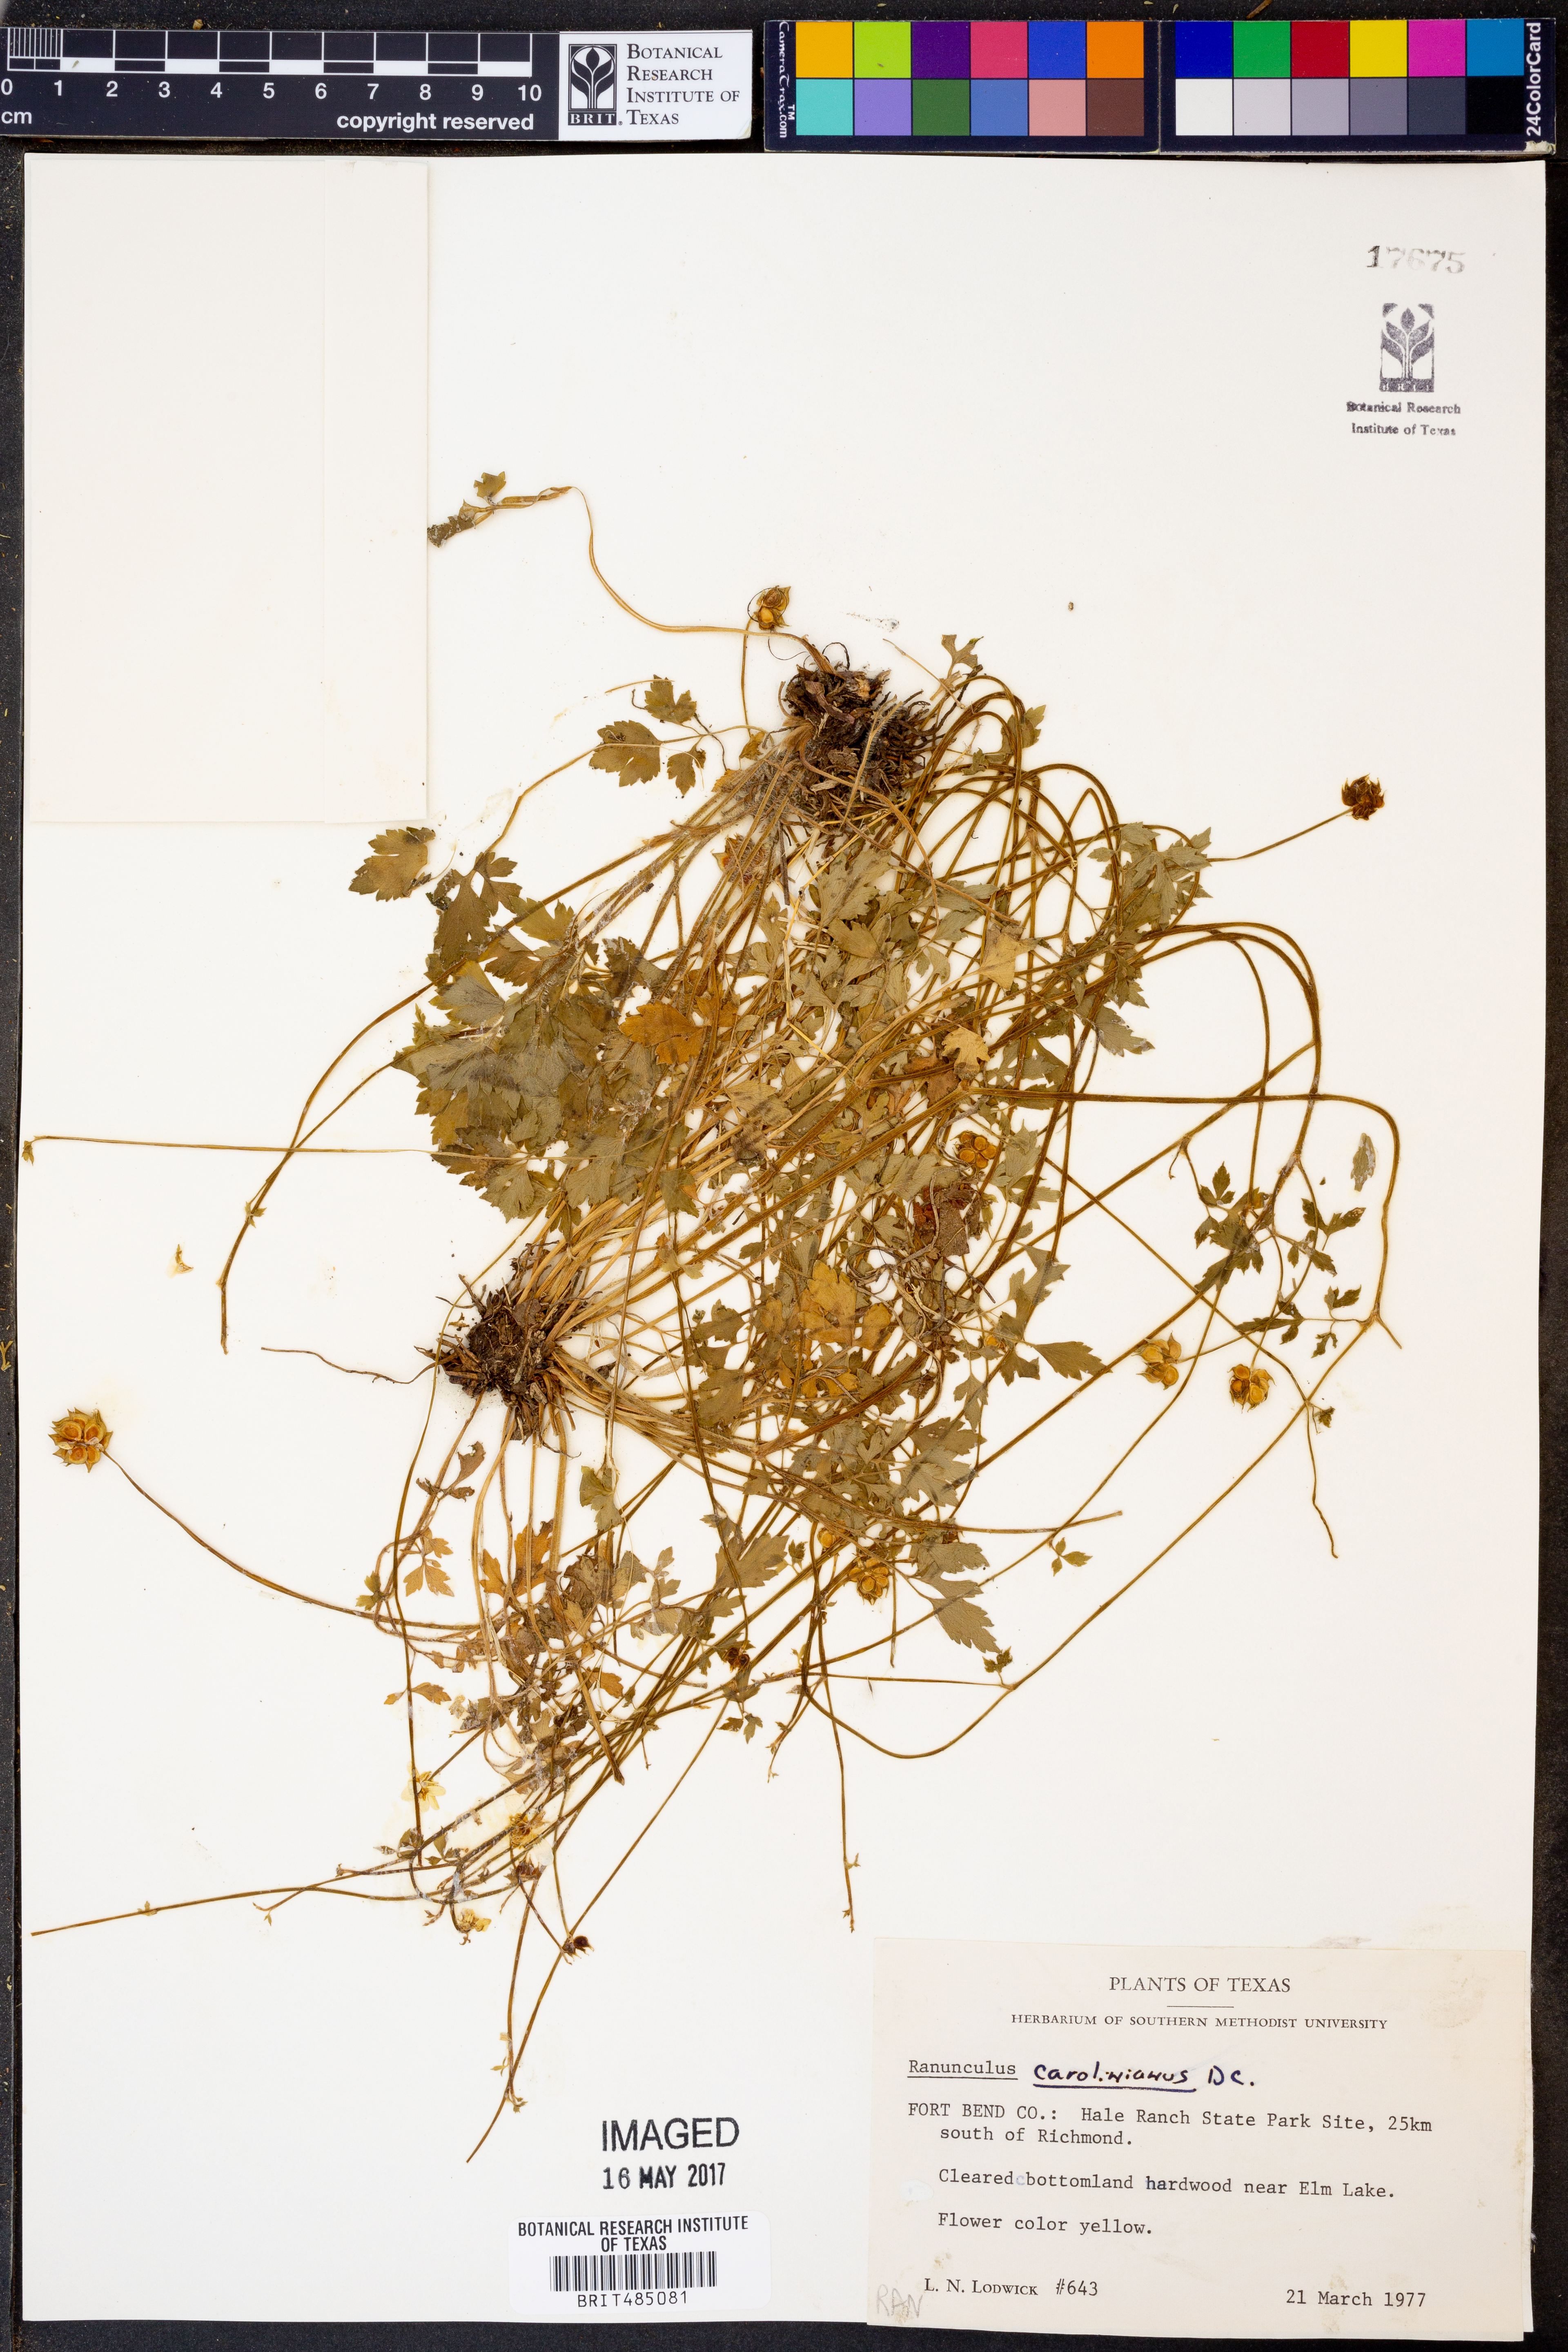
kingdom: Plantae
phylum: Tracheophyta
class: Magnoliopsida
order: Ranunculales
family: Ranunculaceae
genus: Ranunculus
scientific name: Ranunculus hispidus
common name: Bristly buttercup
